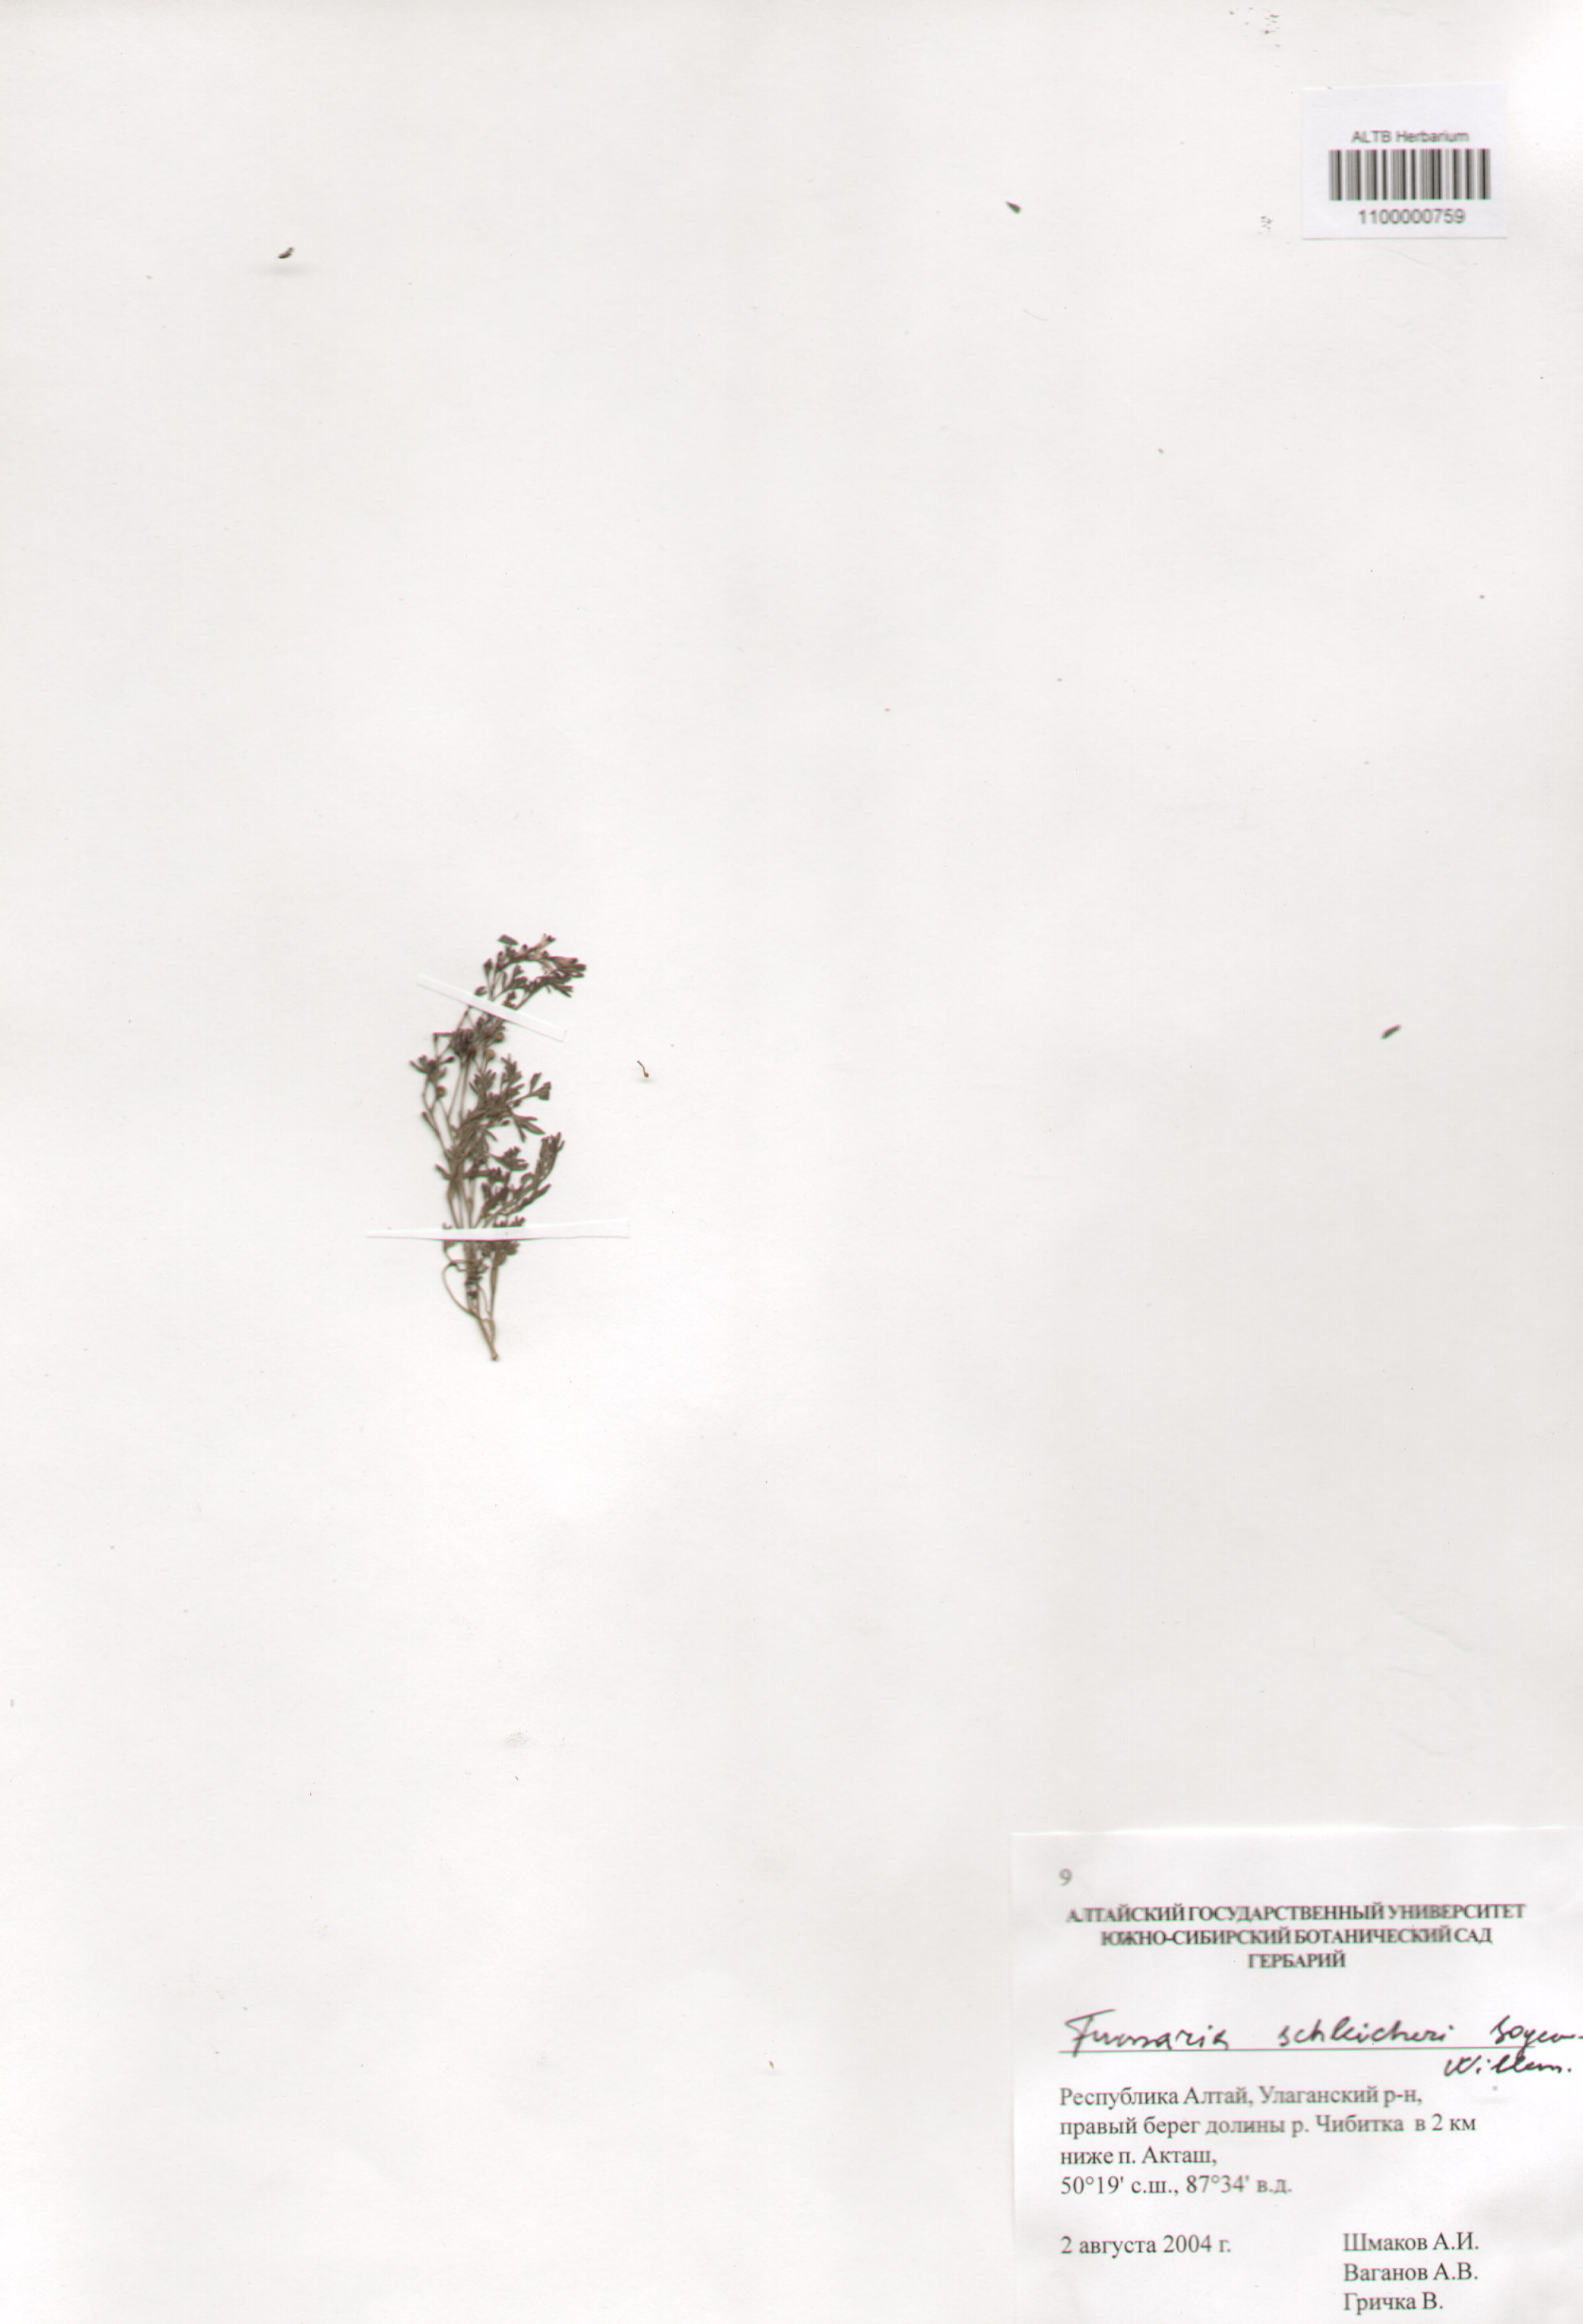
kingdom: Plantae
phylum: Tracheophyta
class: Magnoliopsida
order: Ranunculales
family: Papaveraceae
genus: Fumaria
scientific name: Fumaria schleicheri
